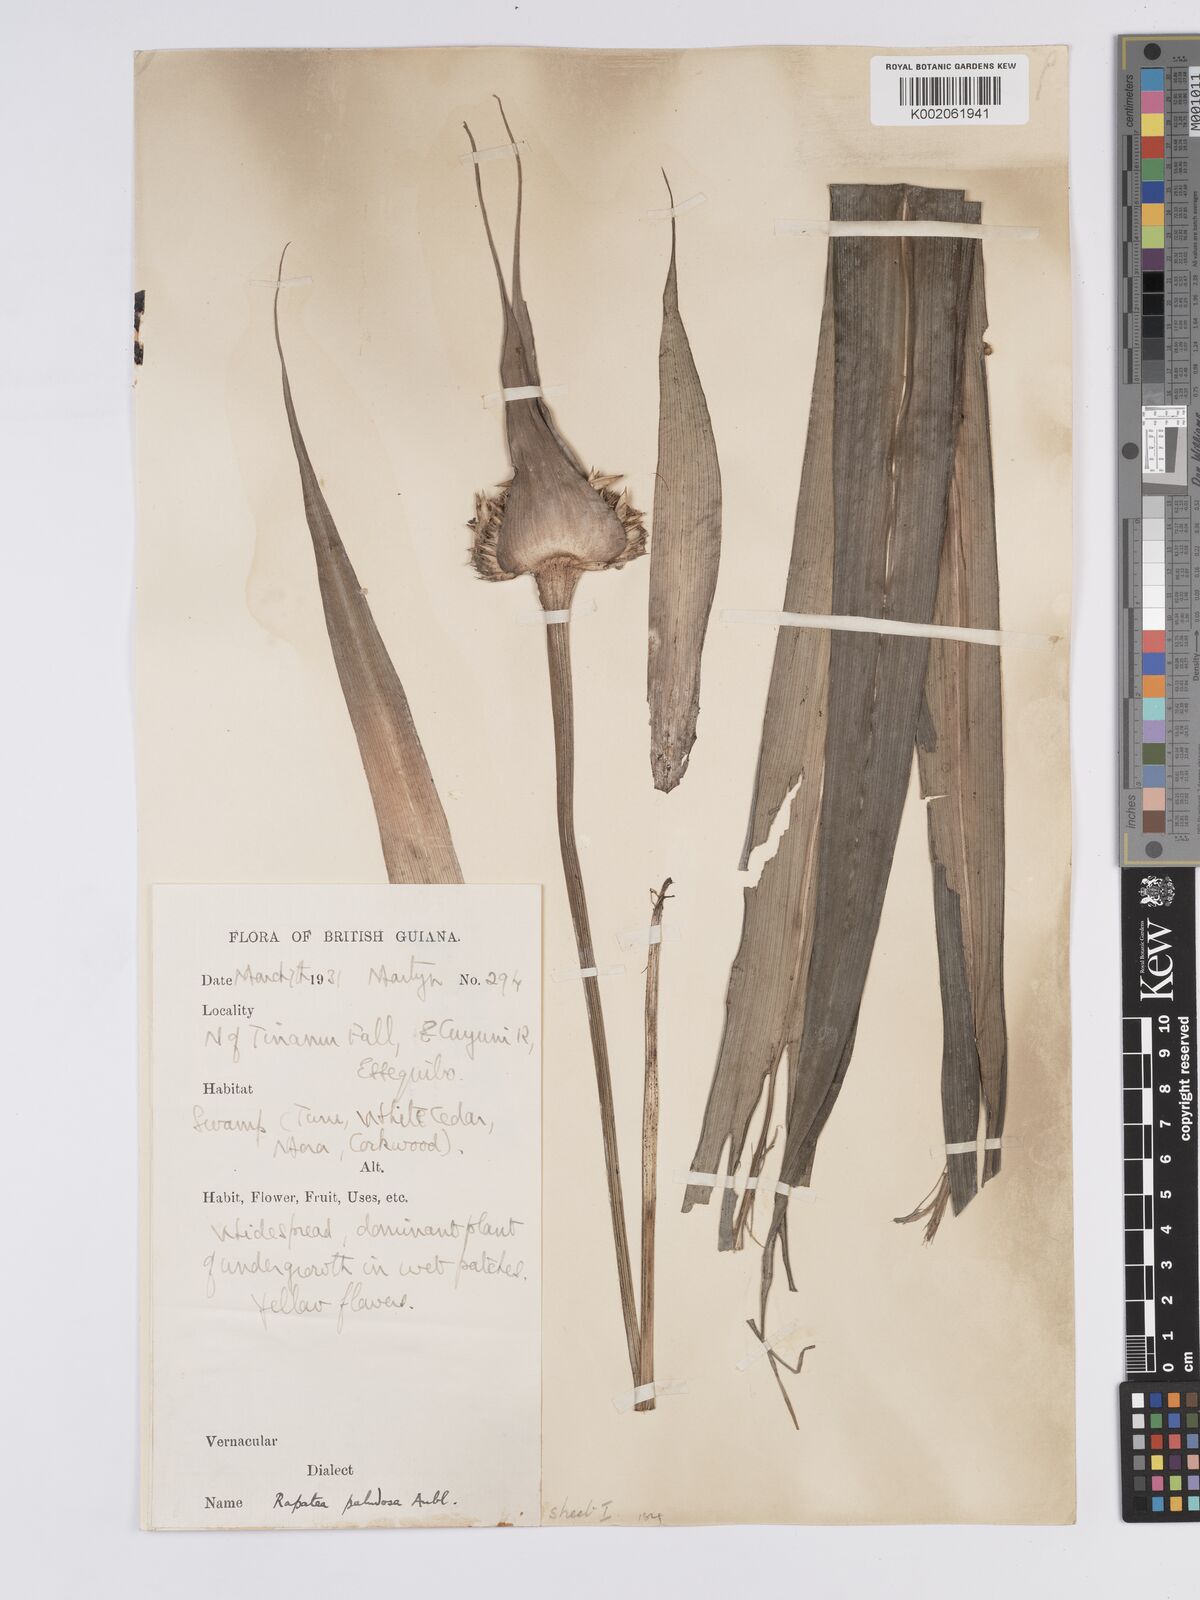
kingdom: Plantae
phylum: Tracheophyta
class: Liliopsida
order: Poales
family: Rapateaceae
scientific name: Rapateaceae
